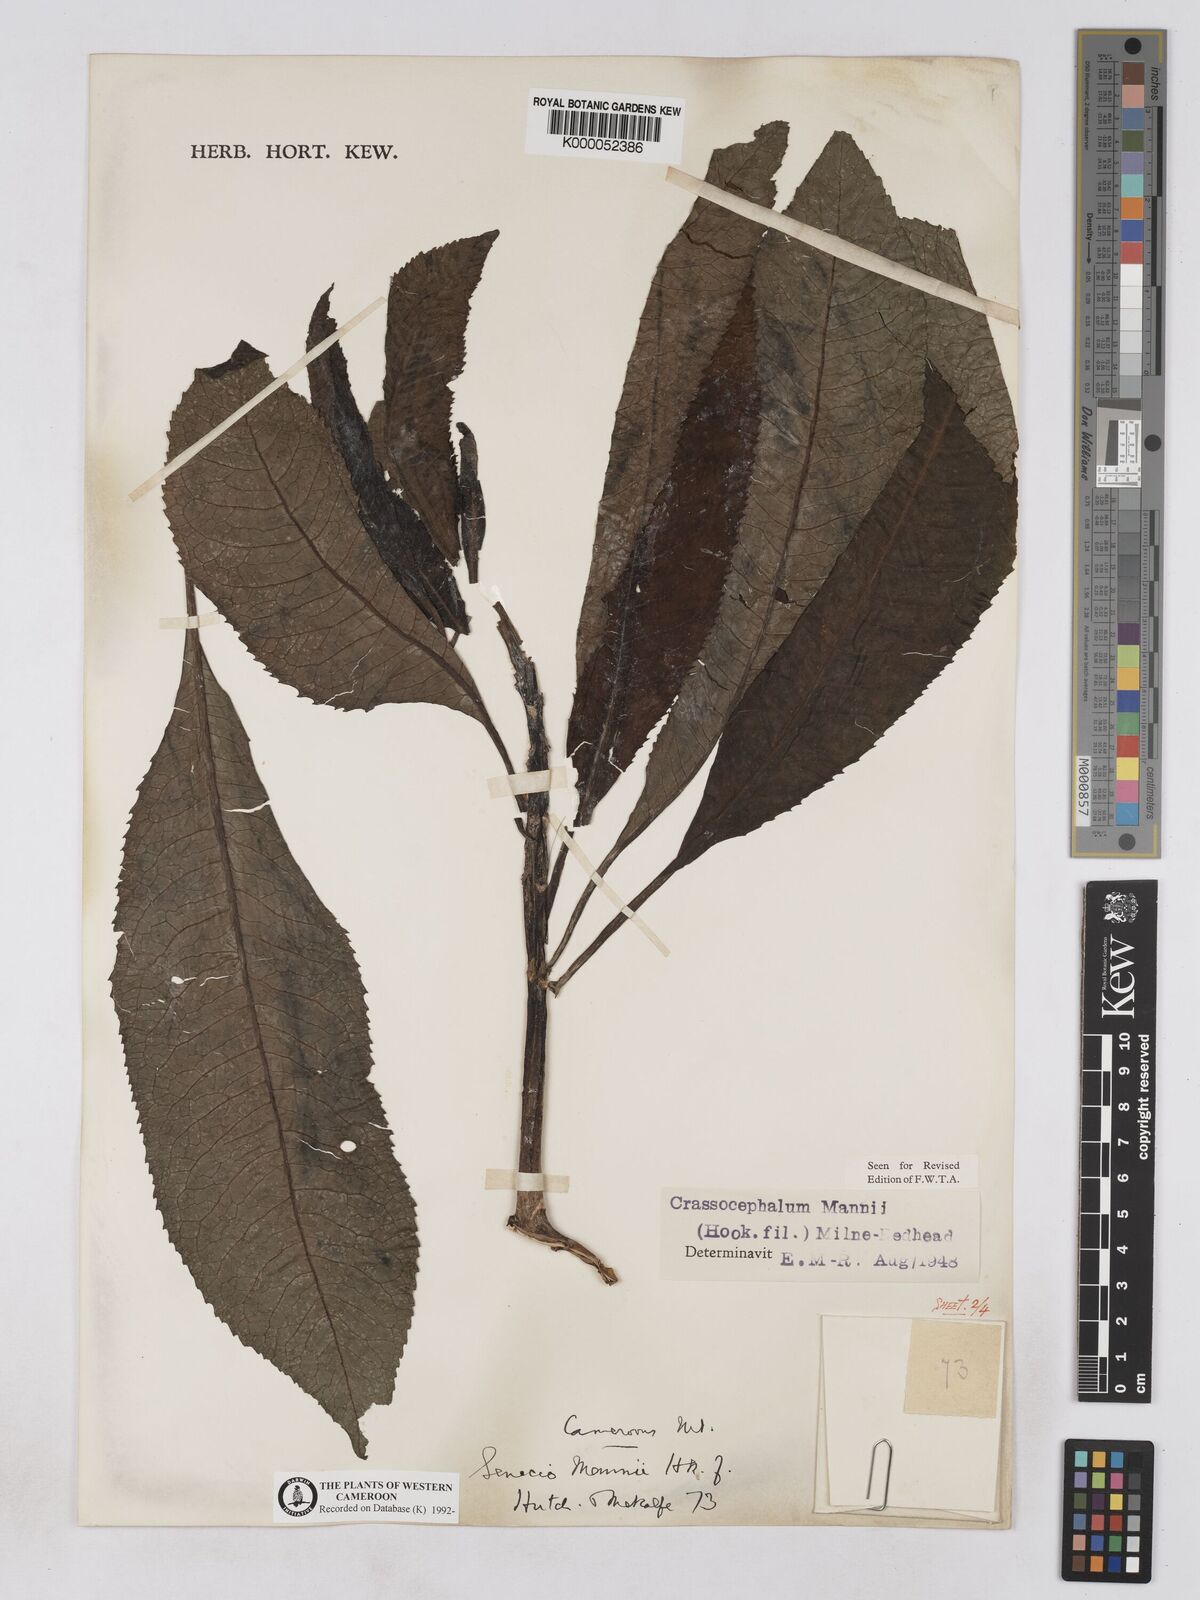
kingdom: Plantae
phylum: Tracheophyta
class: Magnoliopsida
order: Asterales
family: Asteraceae
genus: Solanecio
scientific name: Solanecio mannii
